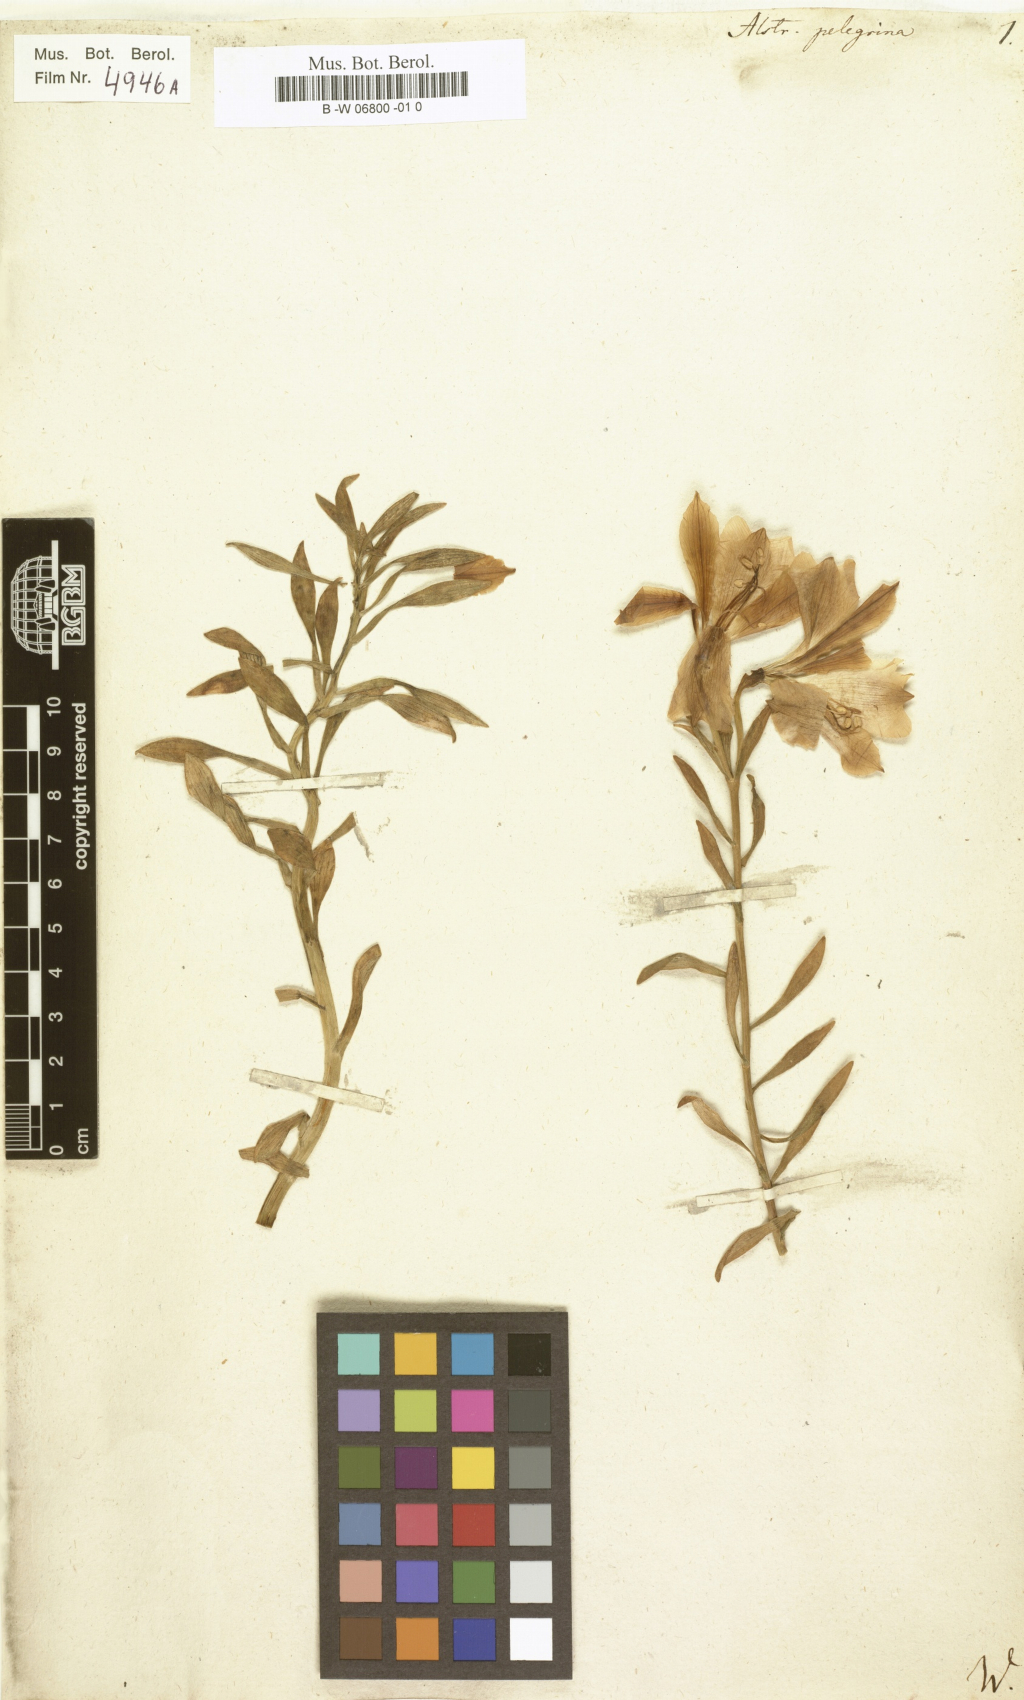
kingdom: Plantae
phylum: Tracheophyta
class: Liliopsida
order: Liliales
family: Alstroemeriaceae
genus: Alstroemeria
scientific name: Alstroemeria pelegrina
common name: Peruvian-lily
